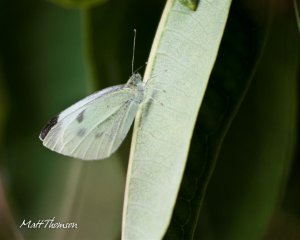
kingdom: Animalia
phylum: Arthropoda
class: Insecta
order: Lepidoptera
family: Pieridae
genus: Colias
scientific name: Colias philodice
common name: Clouded Sulphur
